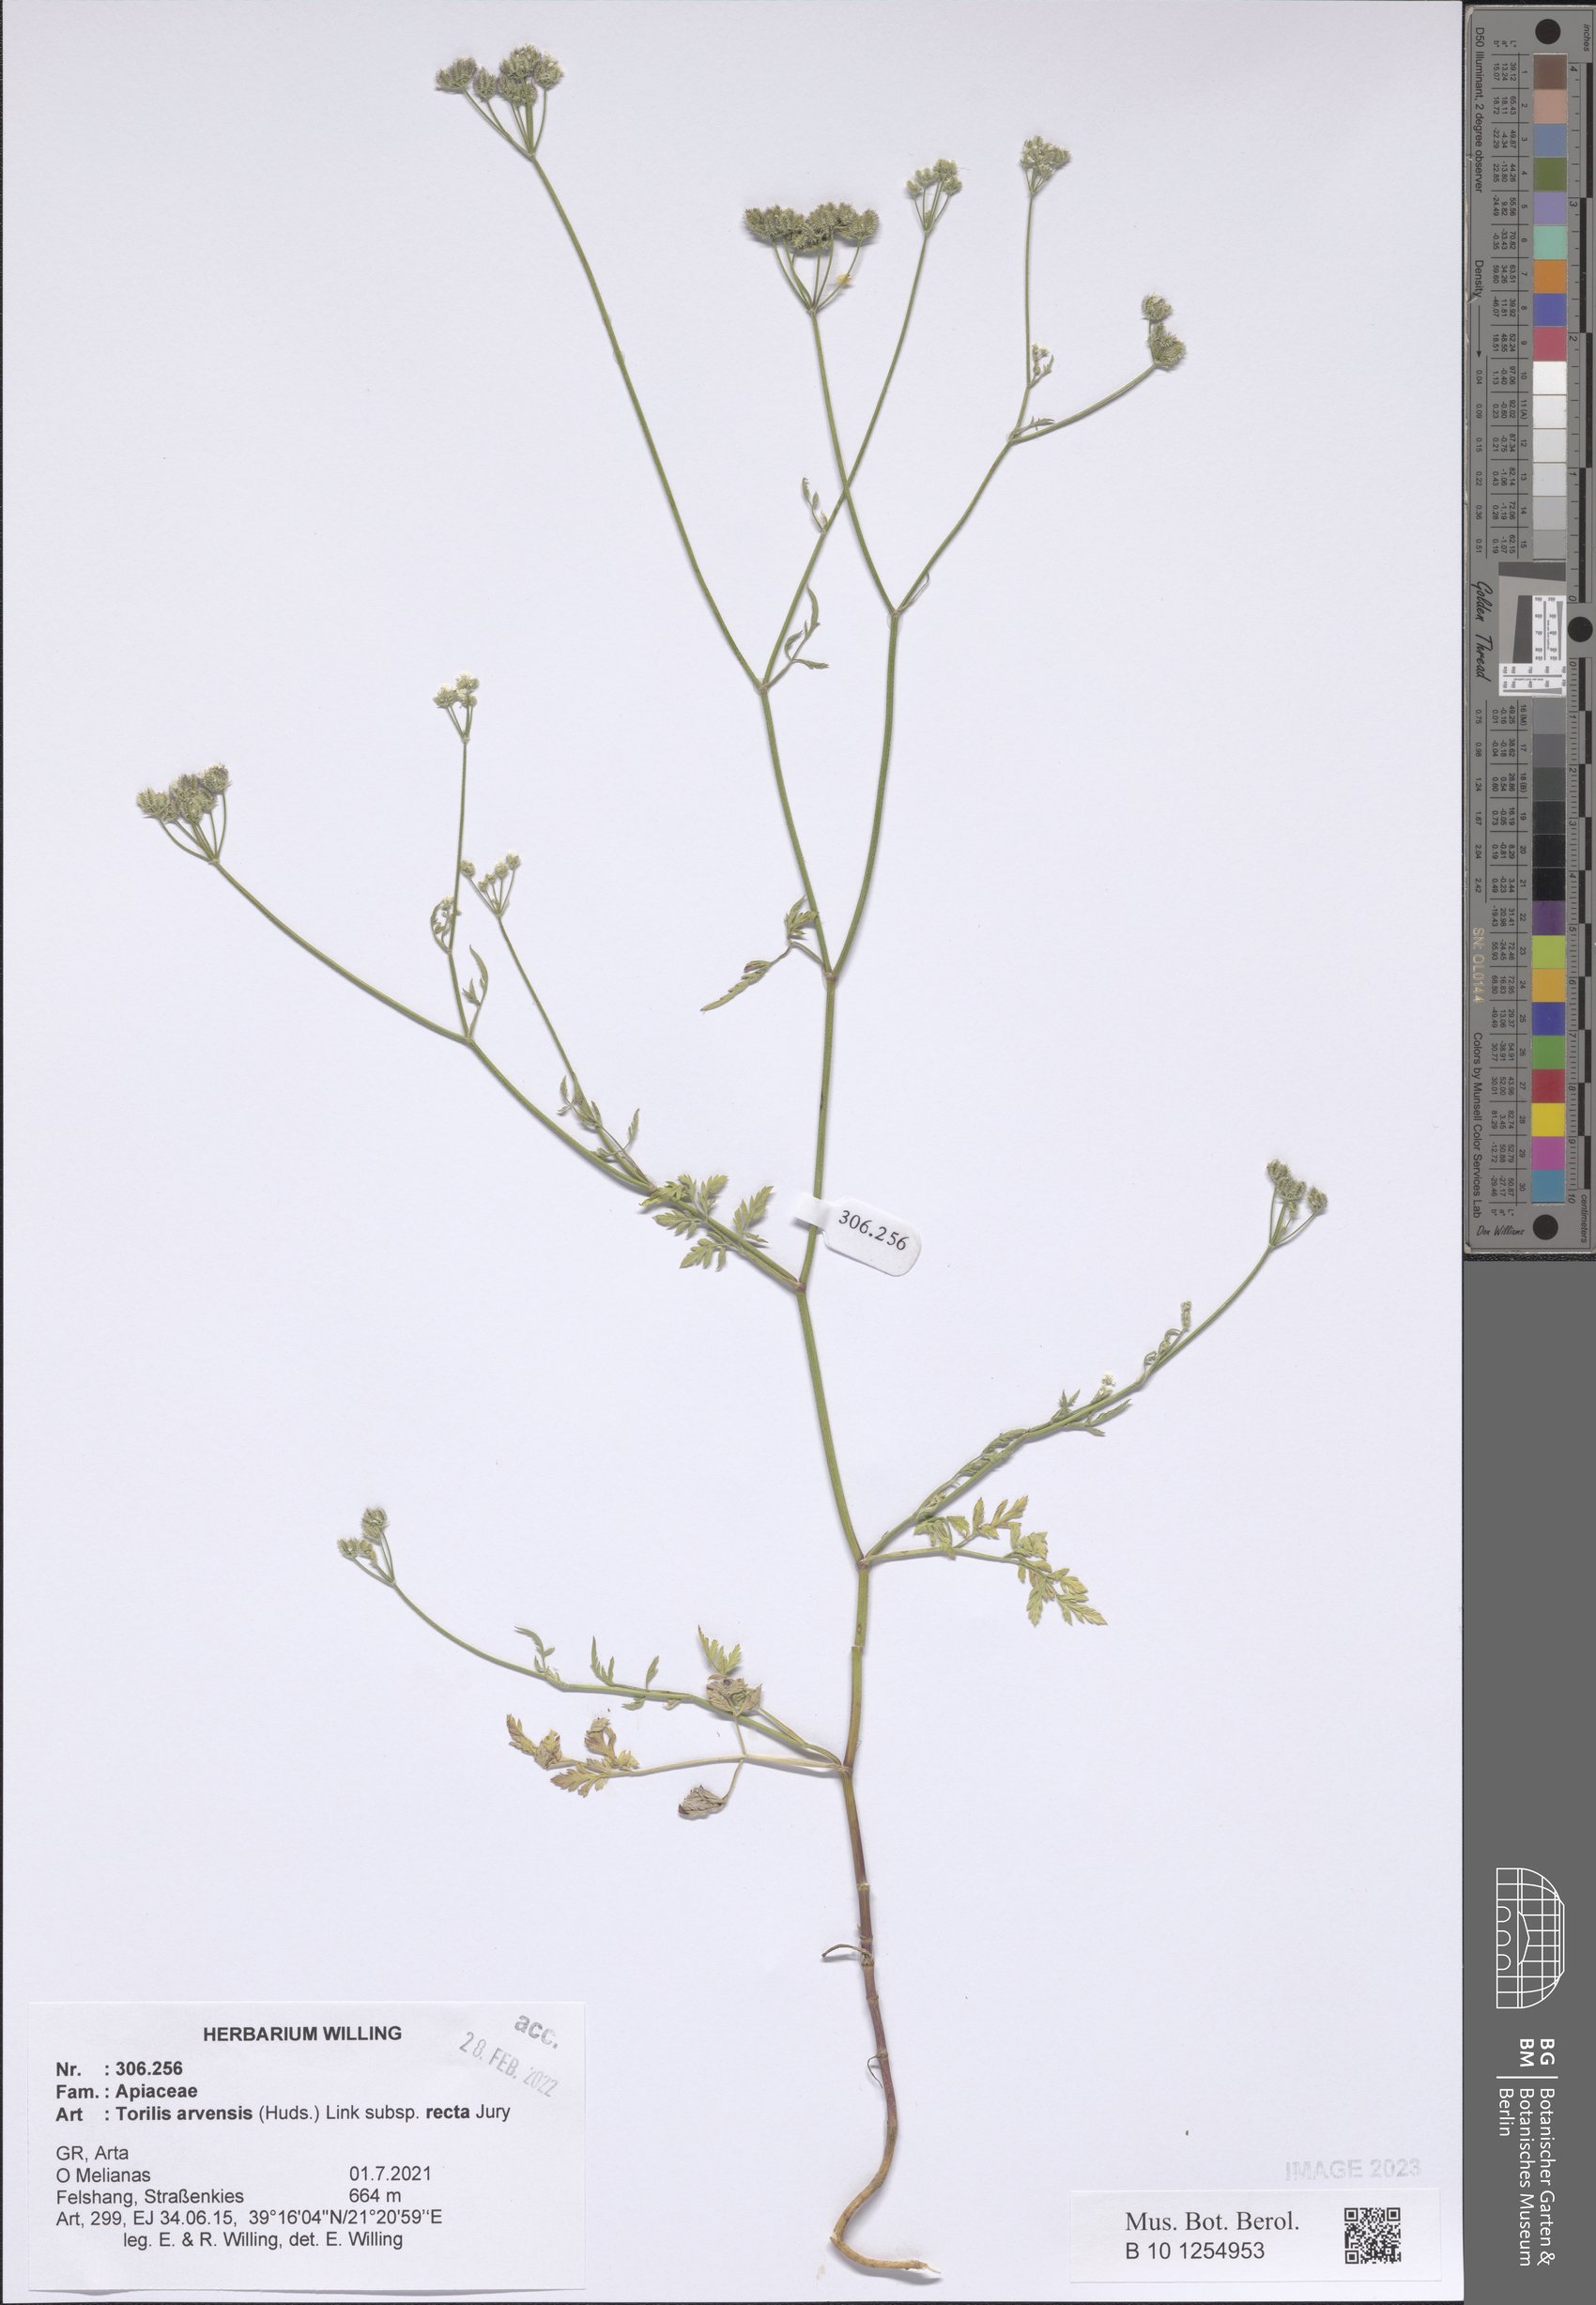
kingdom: Plantae
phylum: Tracheophyta
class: Magnoliopsida
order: Apiales
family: Apiaceae
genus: Torilis
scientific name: Torilis arvensis
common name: Spreading hedge-parsley
